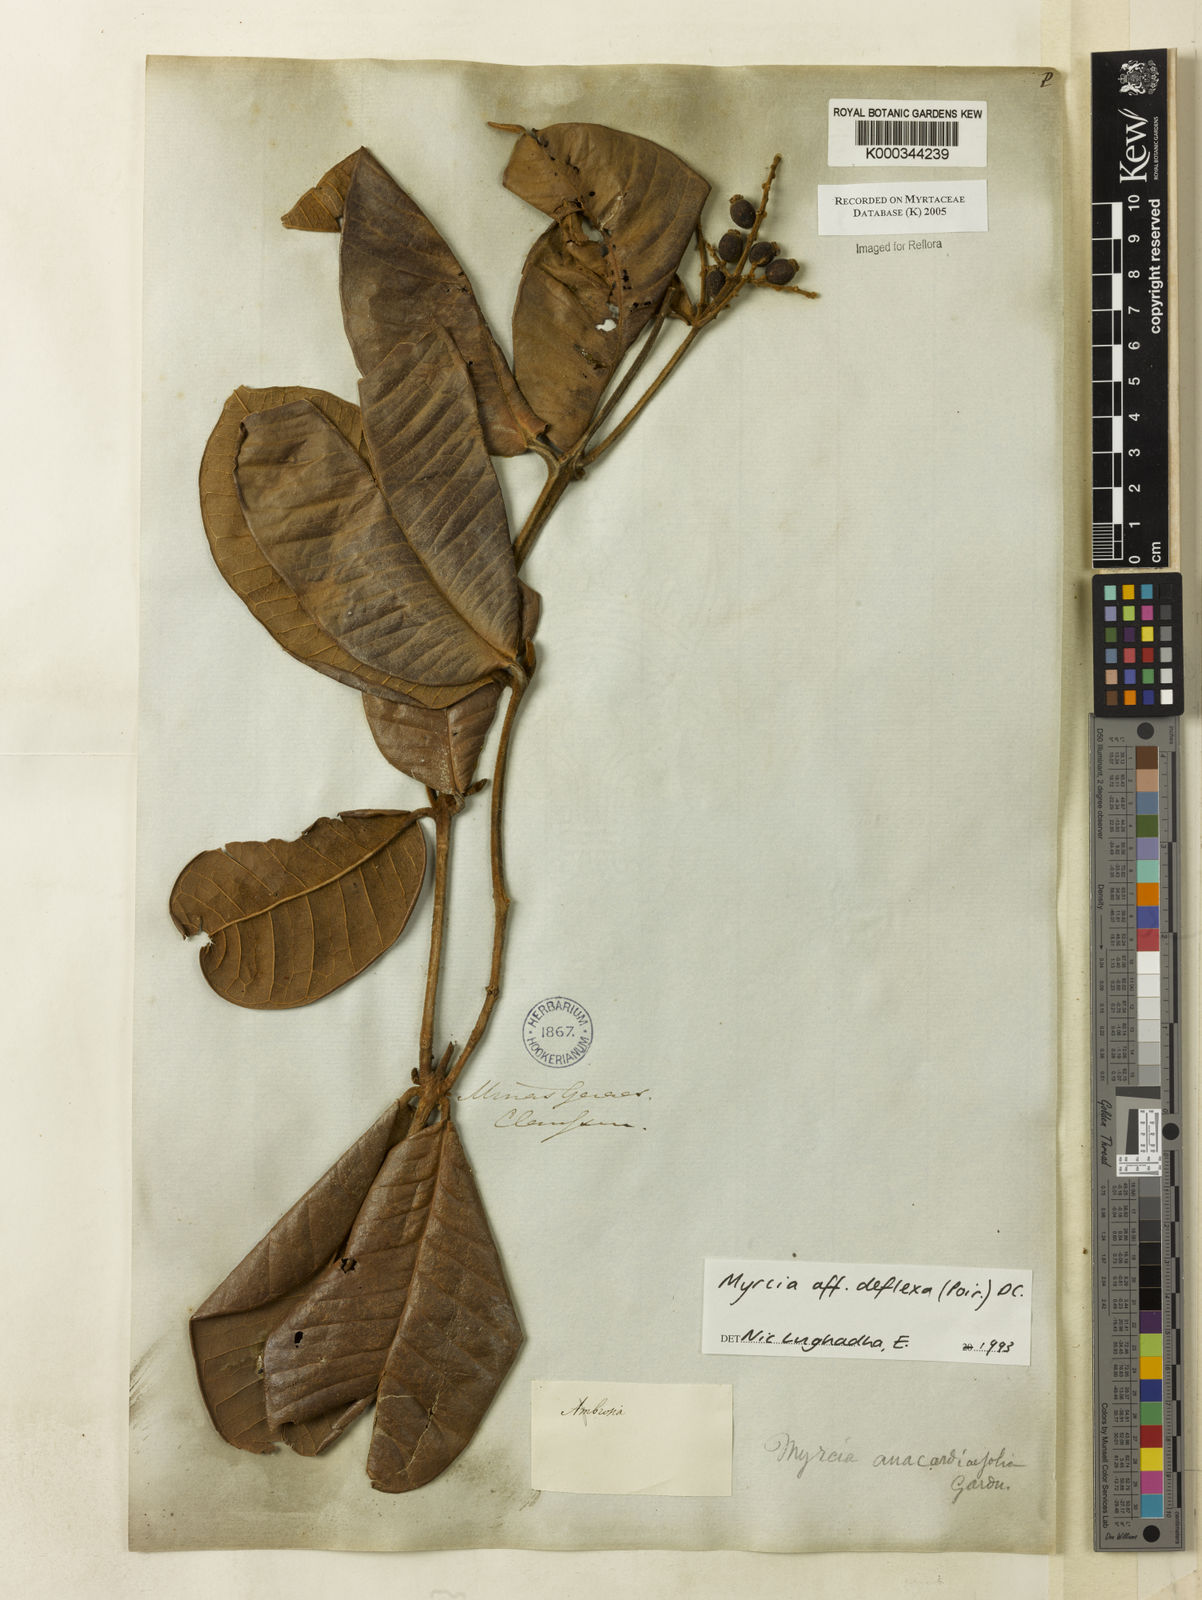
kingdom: Plantae
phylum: Tracheophyta
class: Magnoliopsida
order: Myrtales
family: Myrtaceae
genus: Myrcia
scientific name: Myrcia deflexa
